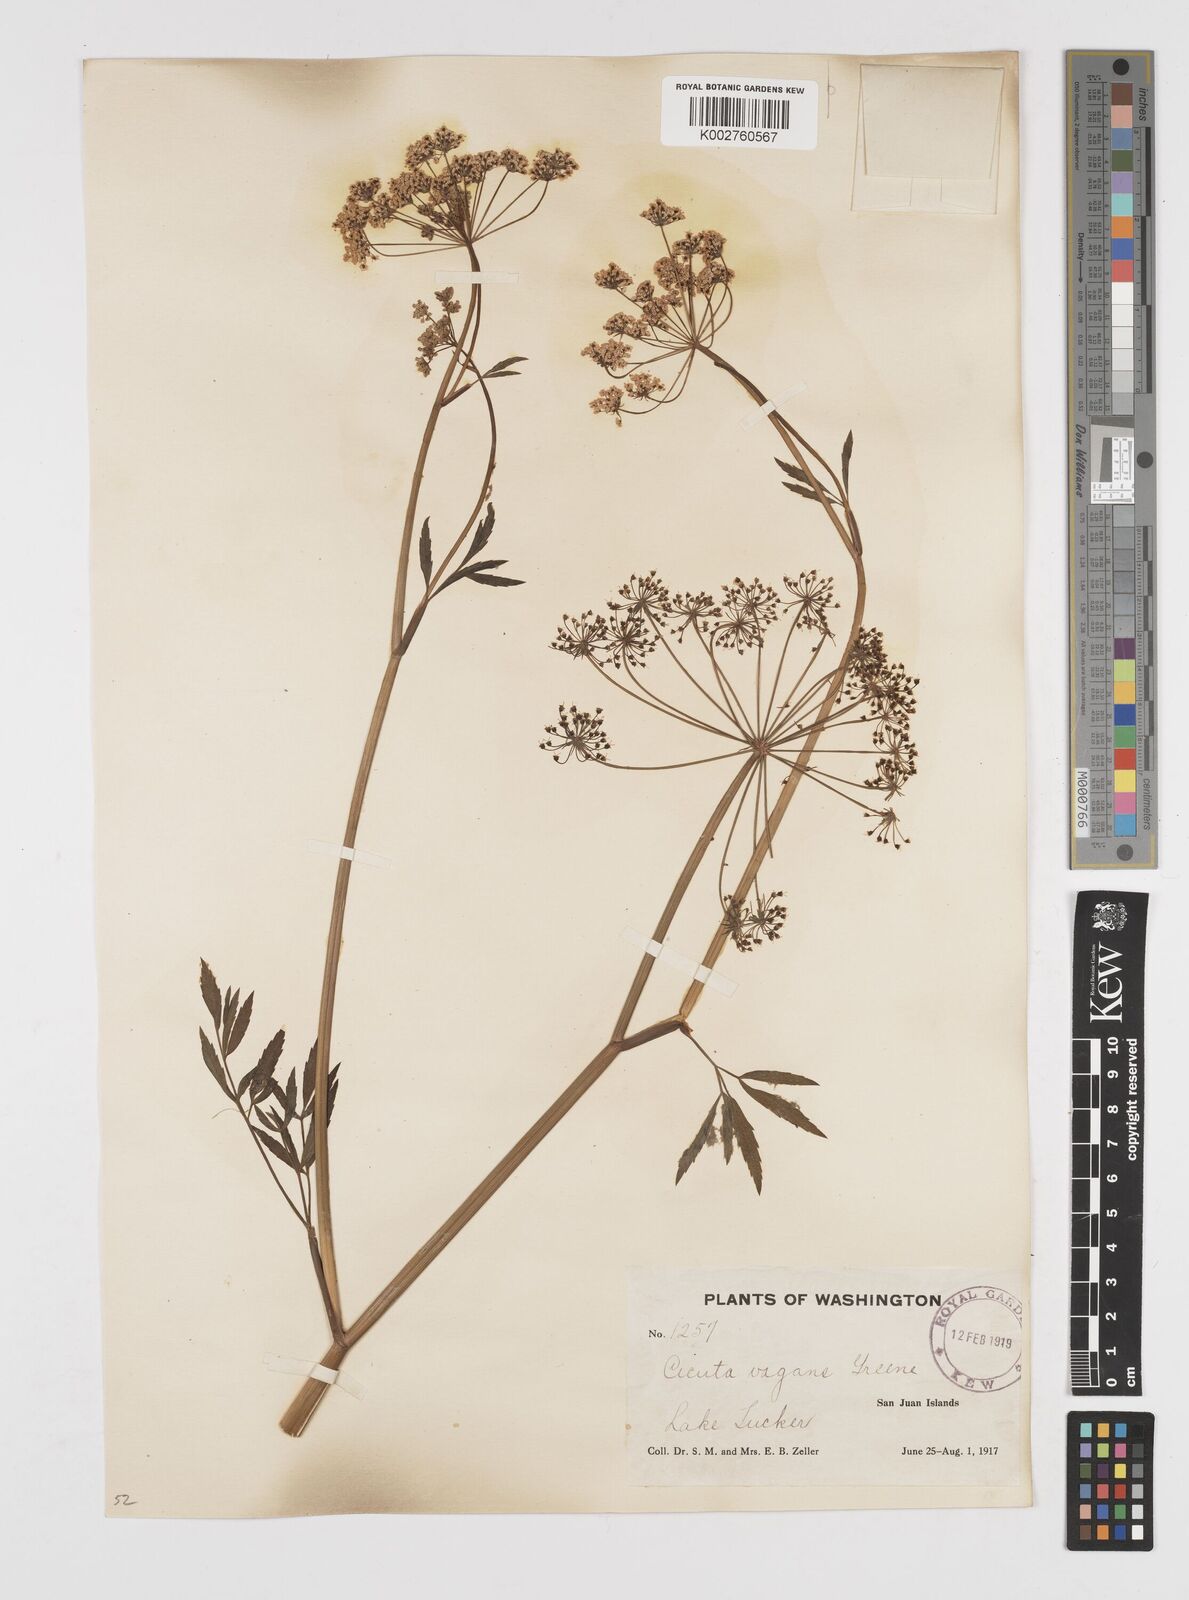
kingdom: Plantae
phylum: Tracheophyta
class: Magnoliopsida
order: Apiales
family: Apiaceae
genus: Cicuta
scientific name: Cicuta douglasii
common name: Western water-hemlock
